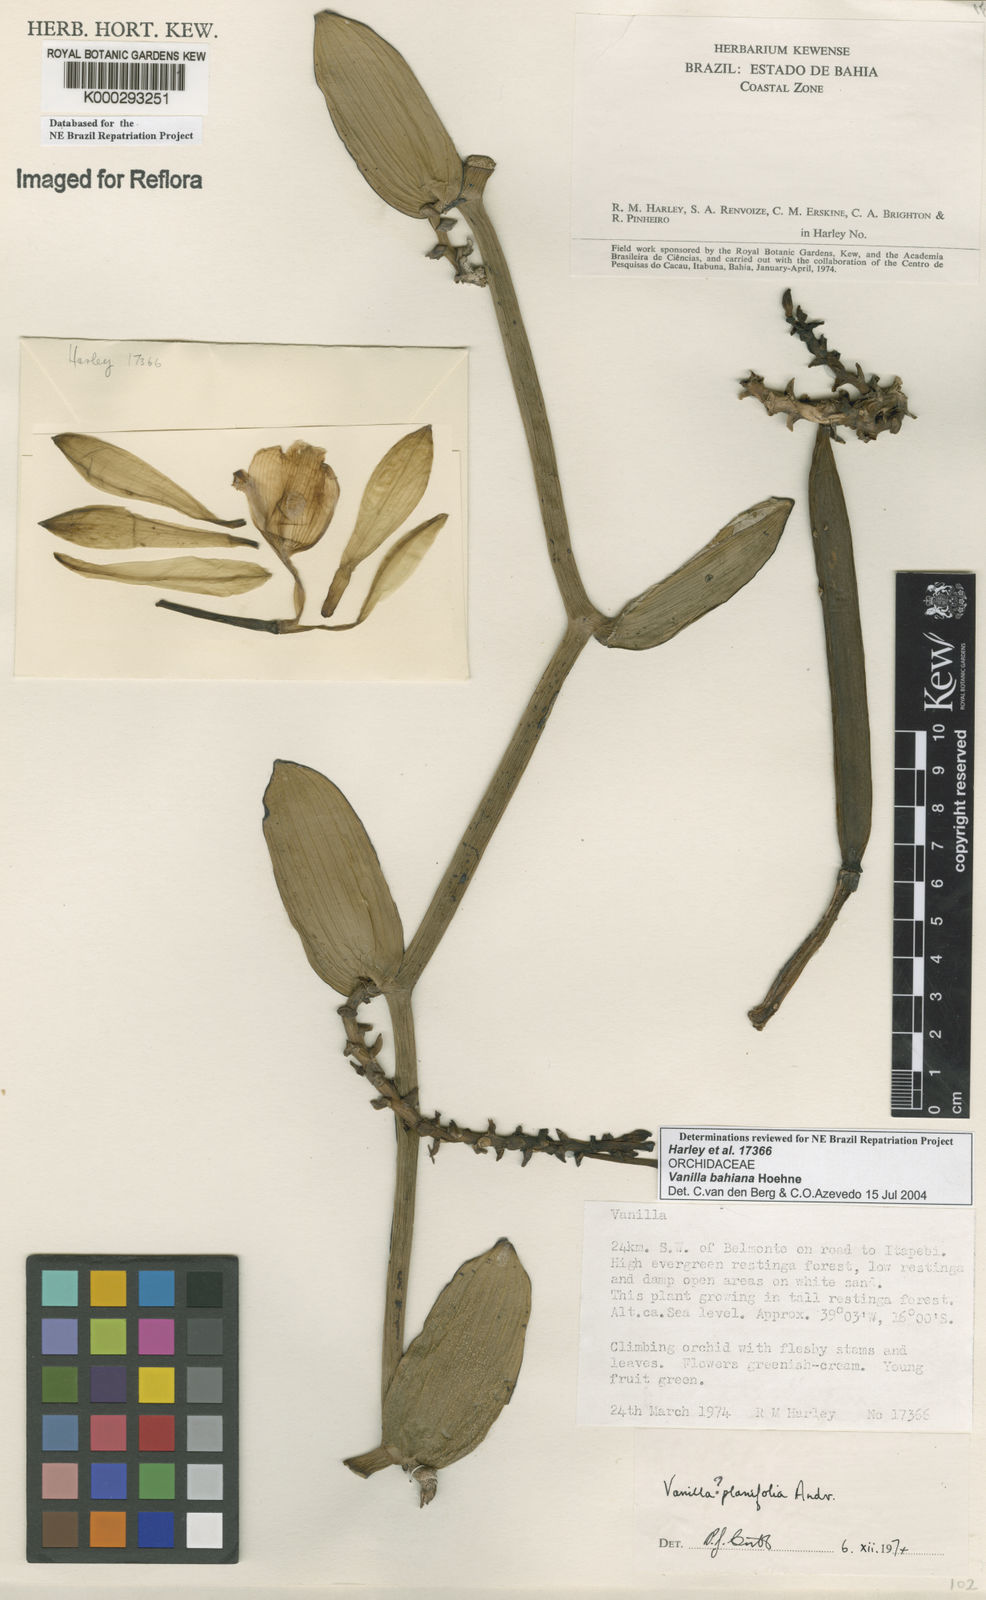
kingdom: Plantae
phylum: Tracheophyta
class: Liliopsida
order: Asparagales
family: Orchidaceae
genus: Vanilla
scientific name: Vanilla phaeantha
